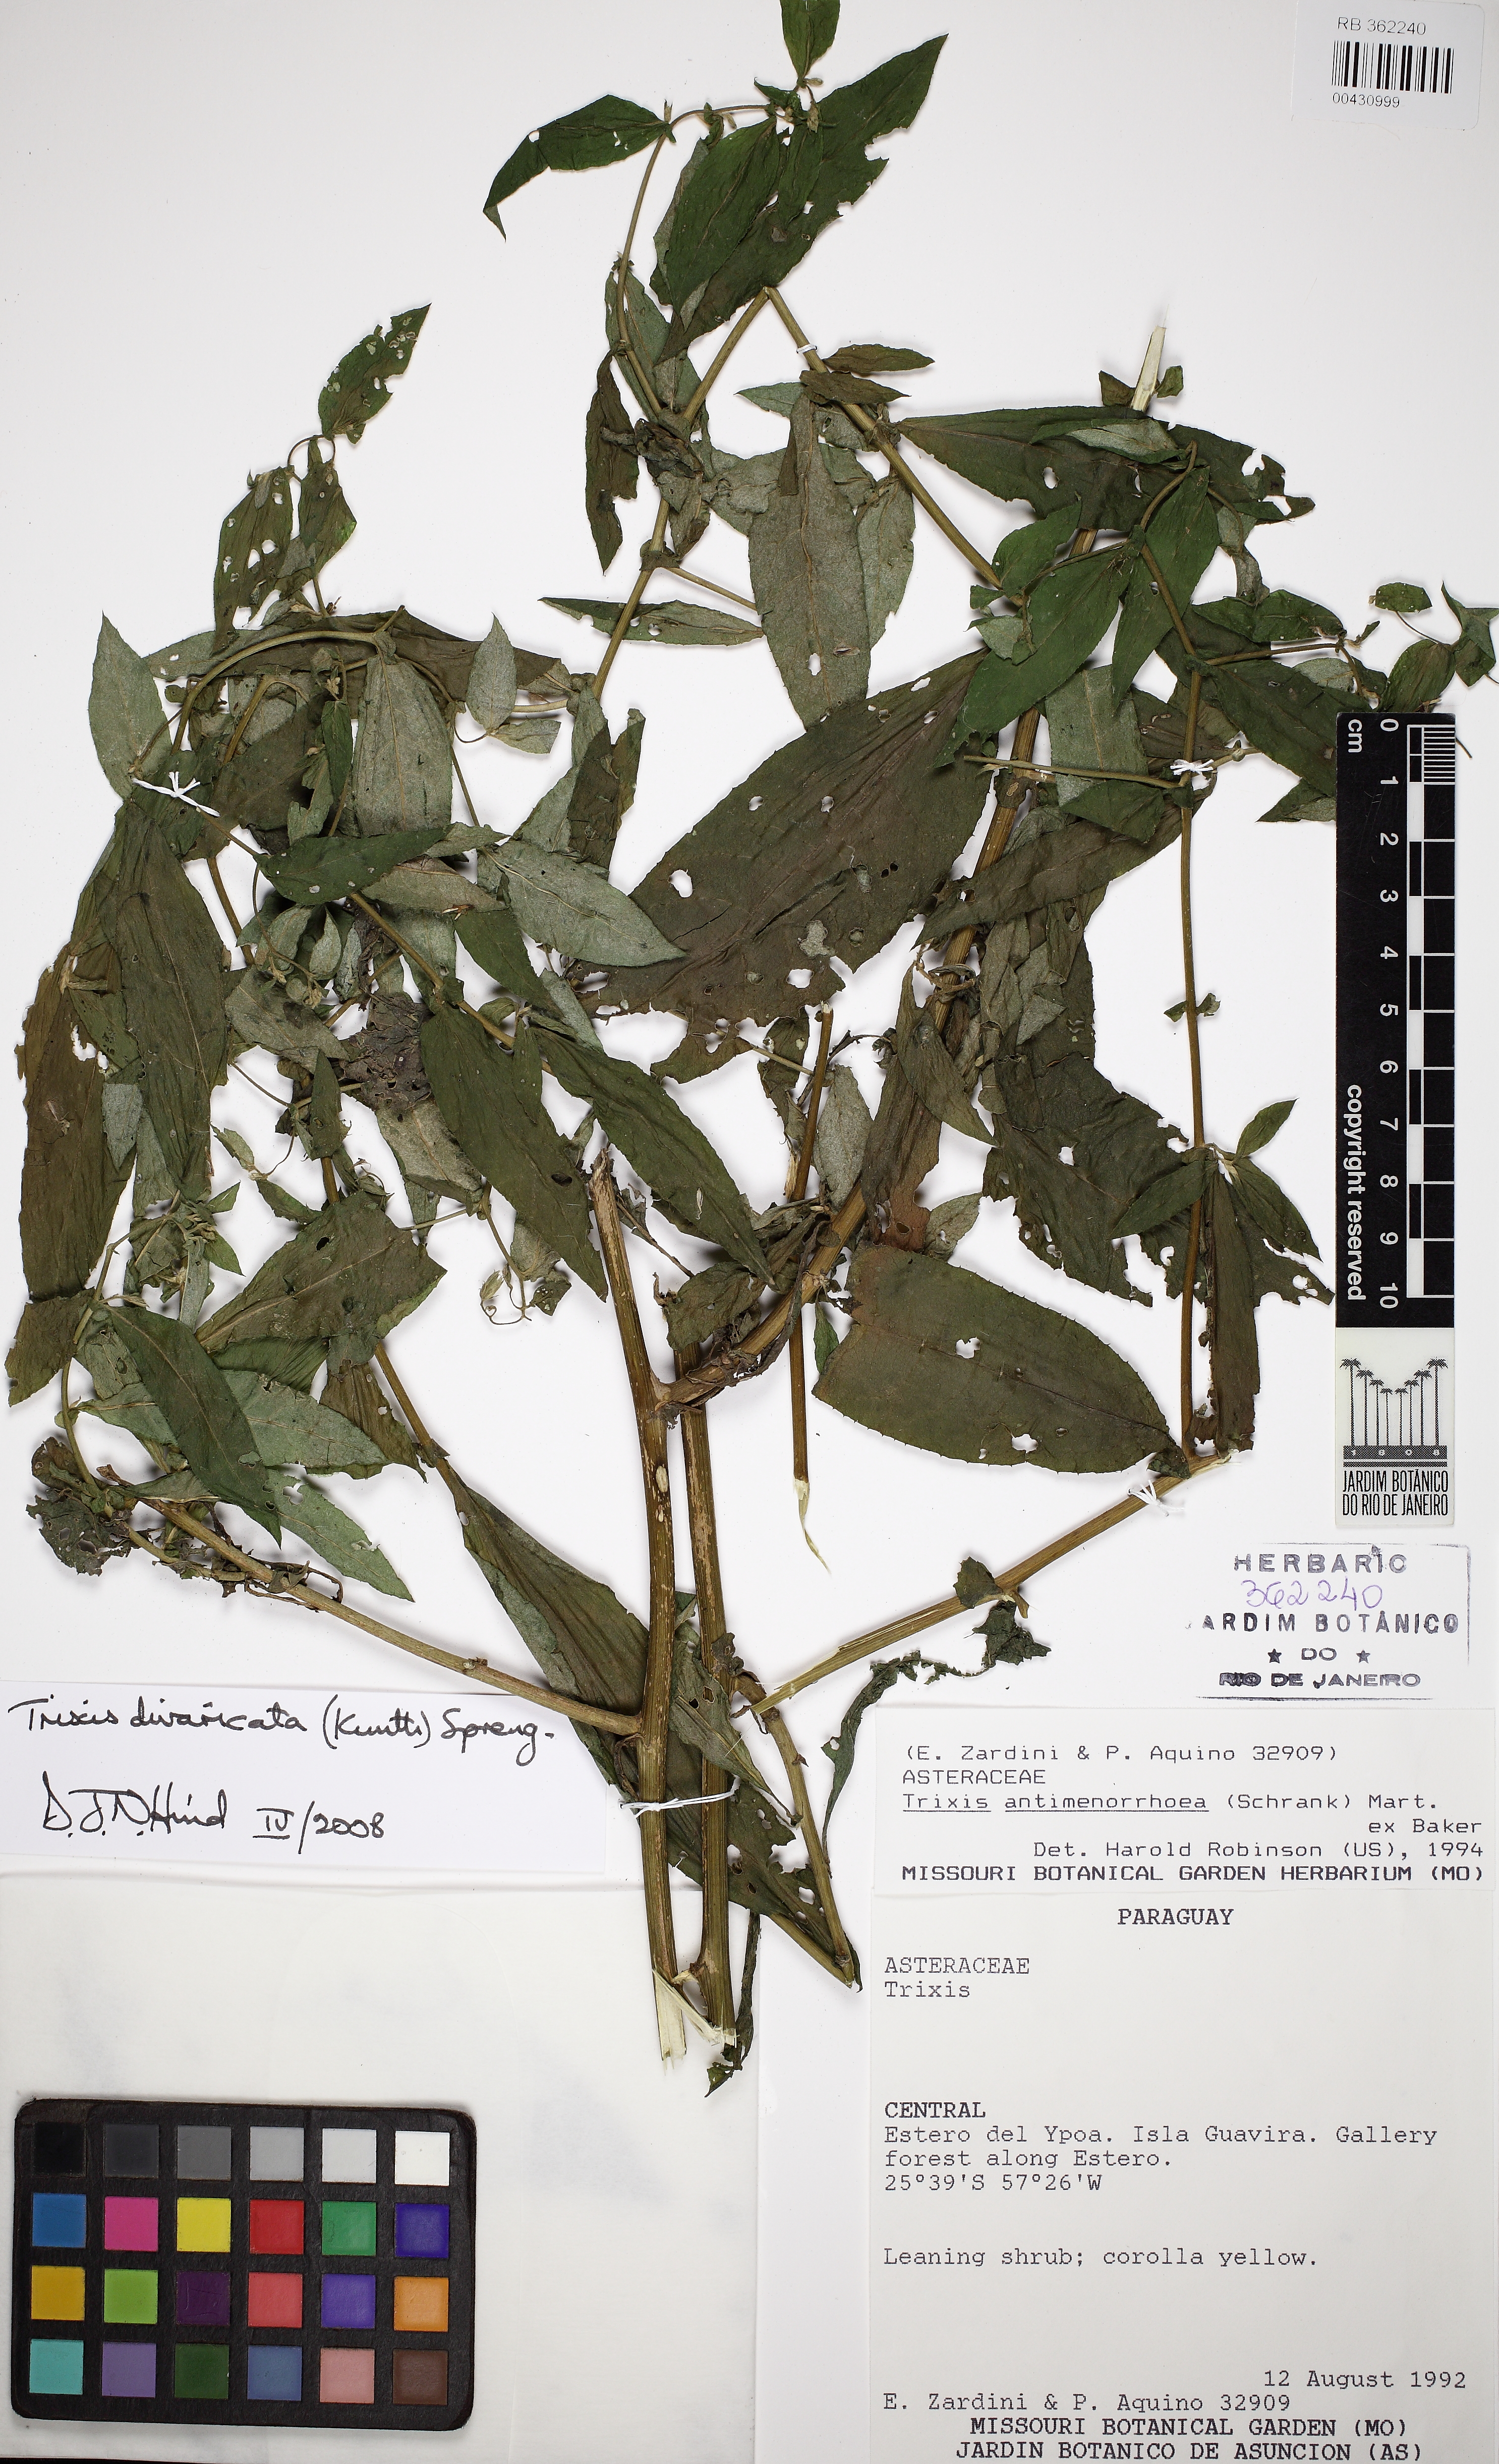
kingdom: Plantae
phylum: Tracheophyta
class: Magnoliopsida
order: Asterales
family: Asteraceae
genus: Trixis
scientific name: Trixis divaricata
